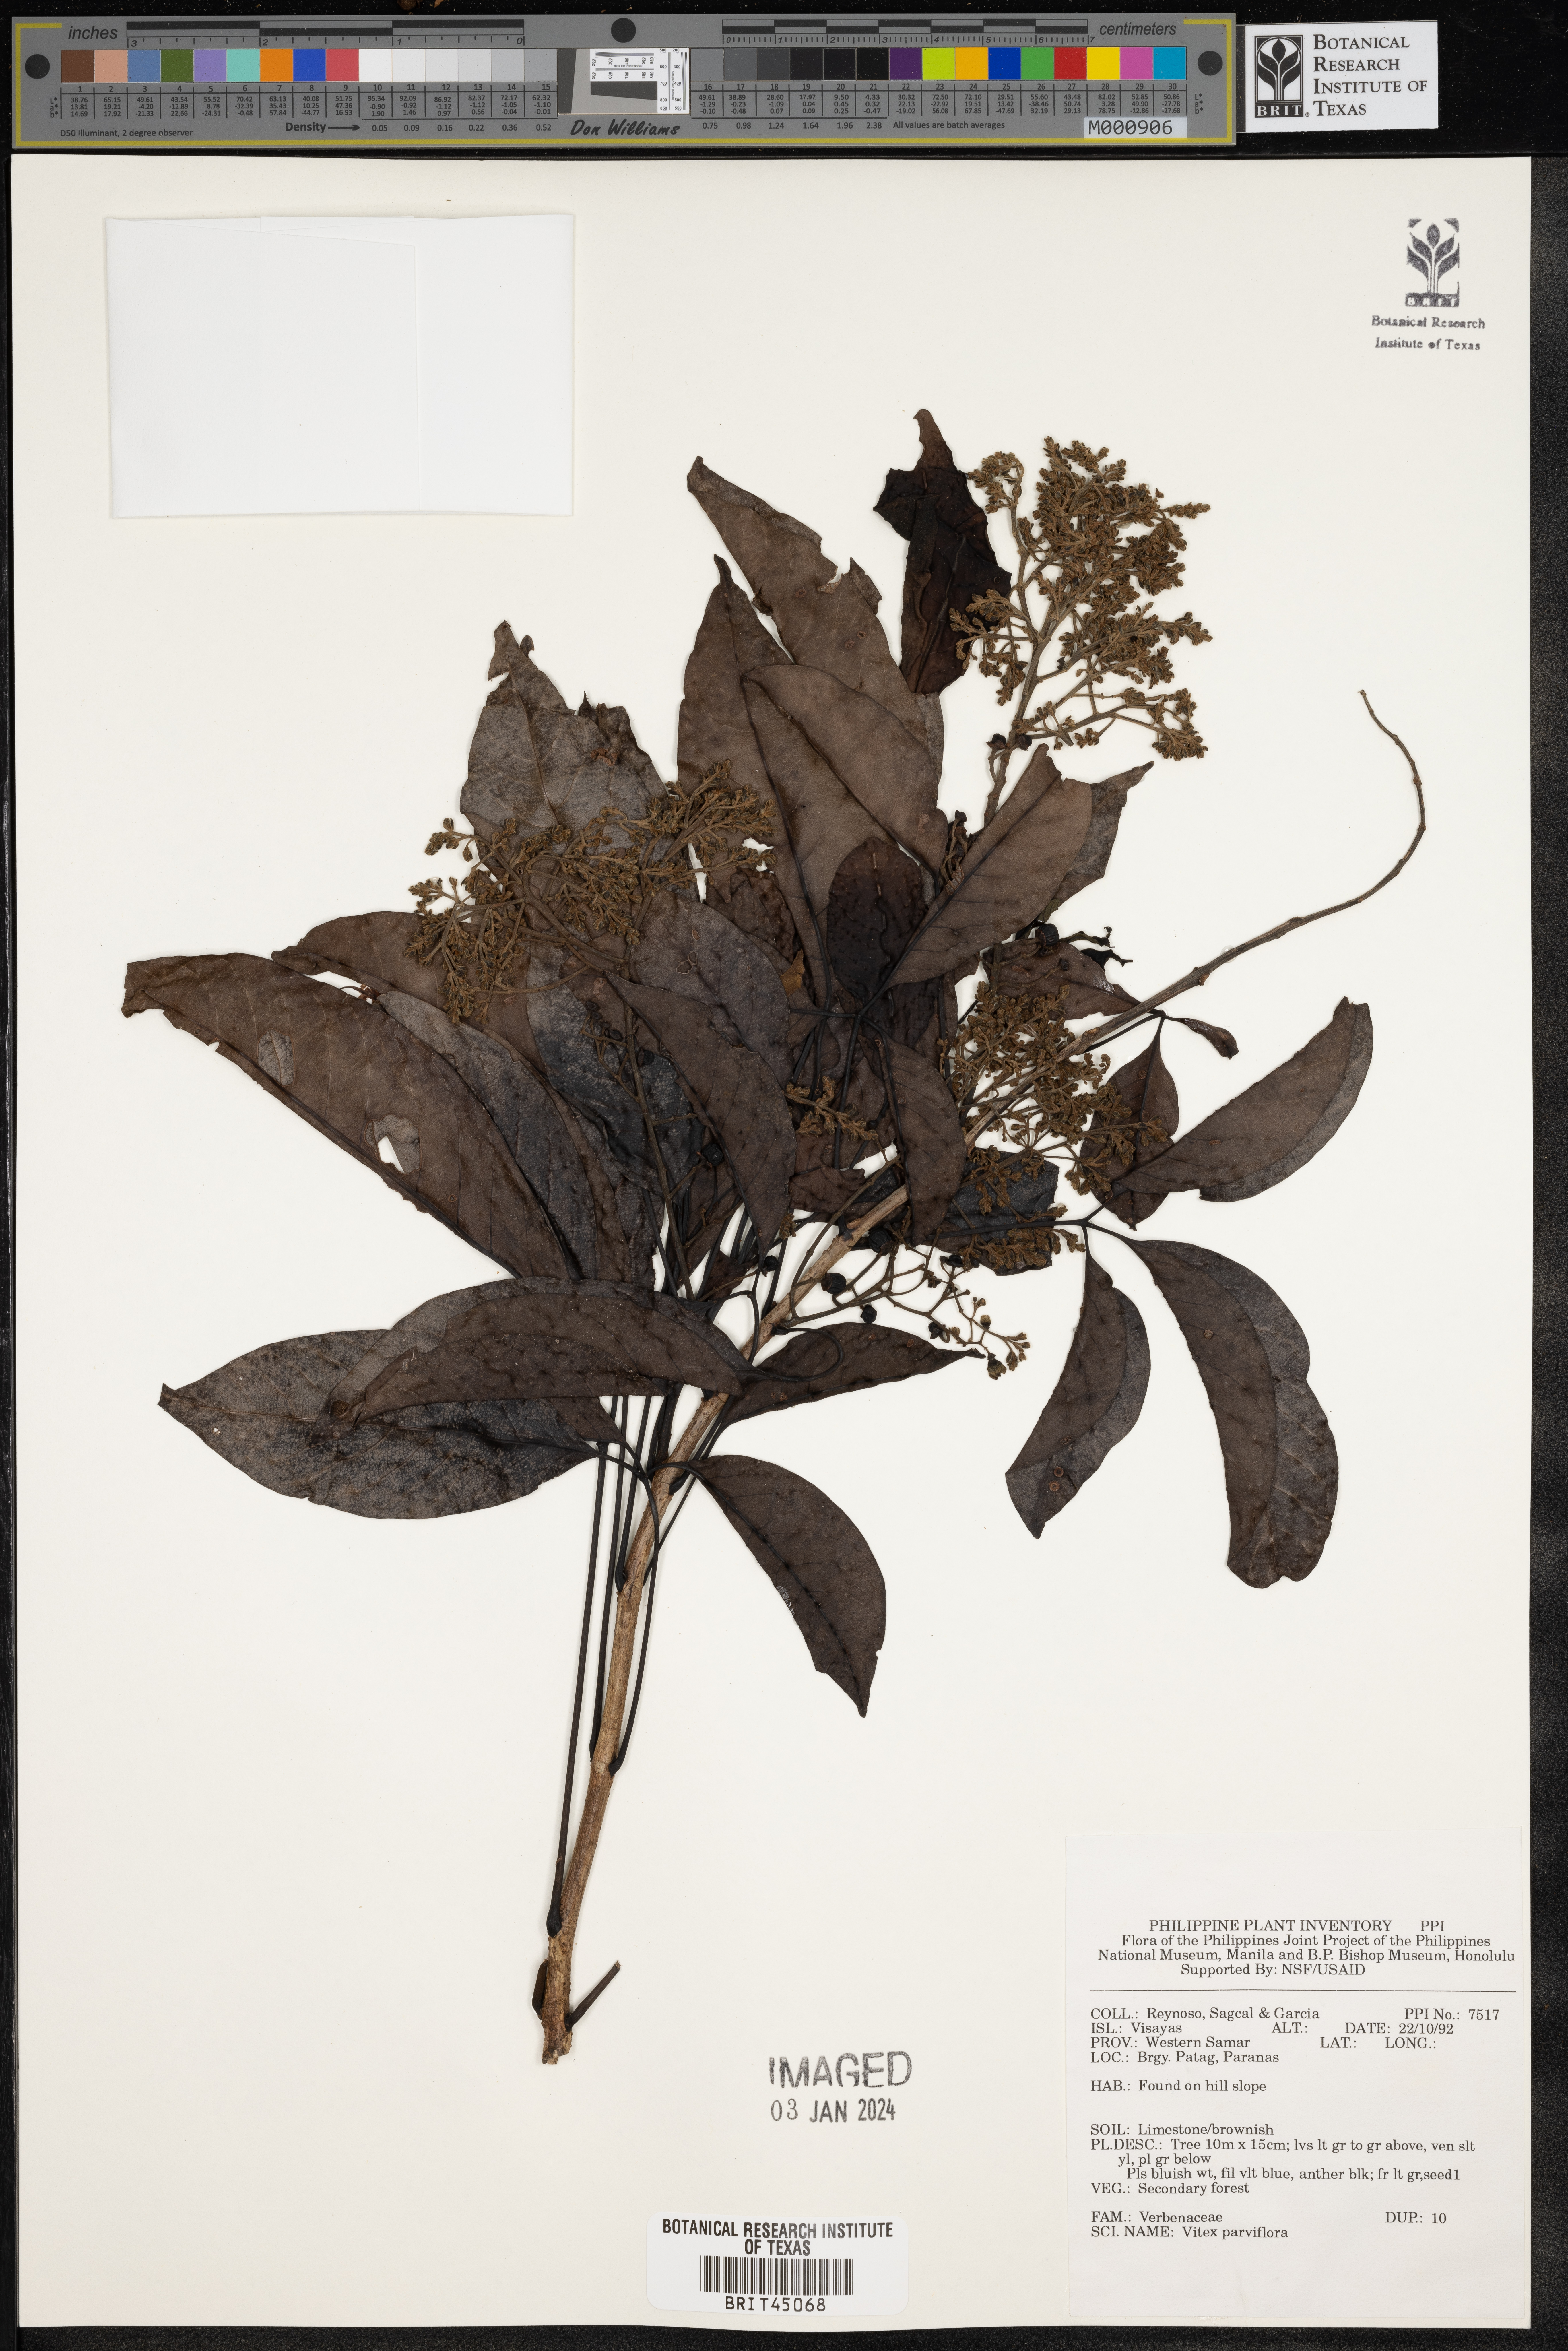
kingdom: Plantae
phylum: Tracheophyta
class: Magnoliopsida
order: Lamiales
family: Lamiaceae
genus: Vitex
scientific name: Vitex parviflora
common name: Smallflower chastetree
